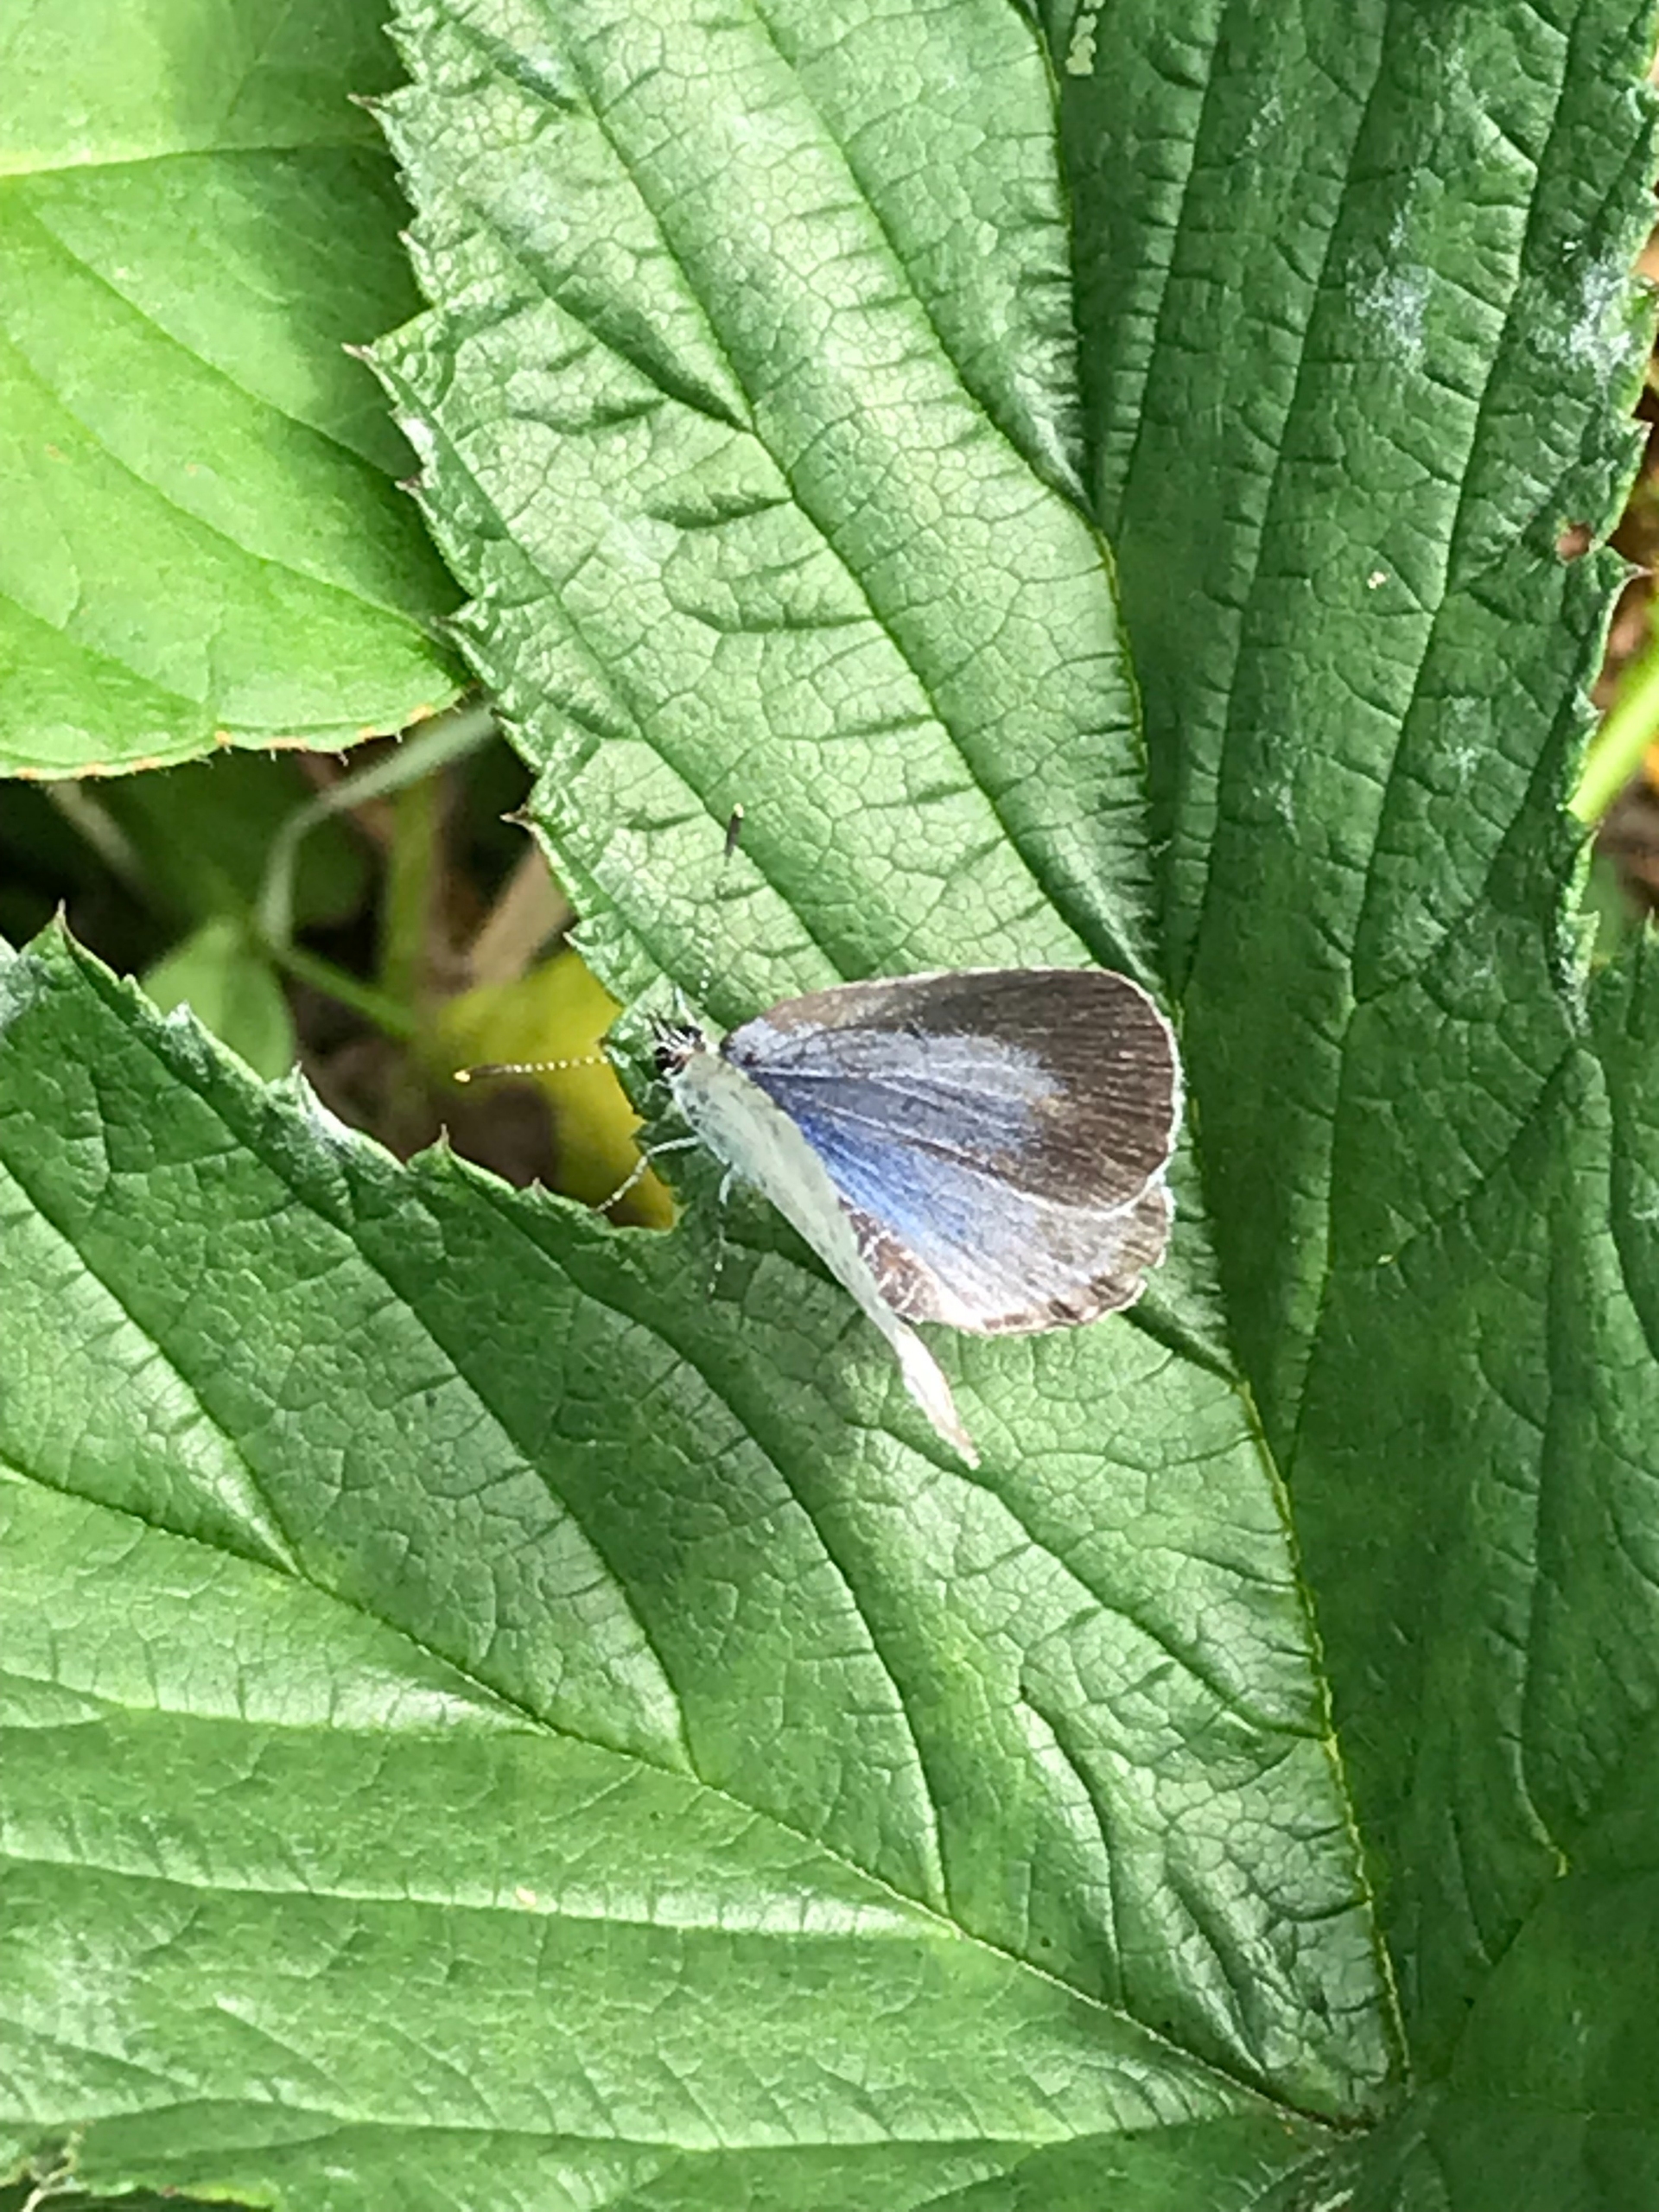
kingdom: Animalia
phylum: Arthropoda
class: Insecta
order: Lepidoptera
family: Lycaenidae
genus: Celastrina
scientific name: Celastrina argiolus
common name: Skovblåfugl
